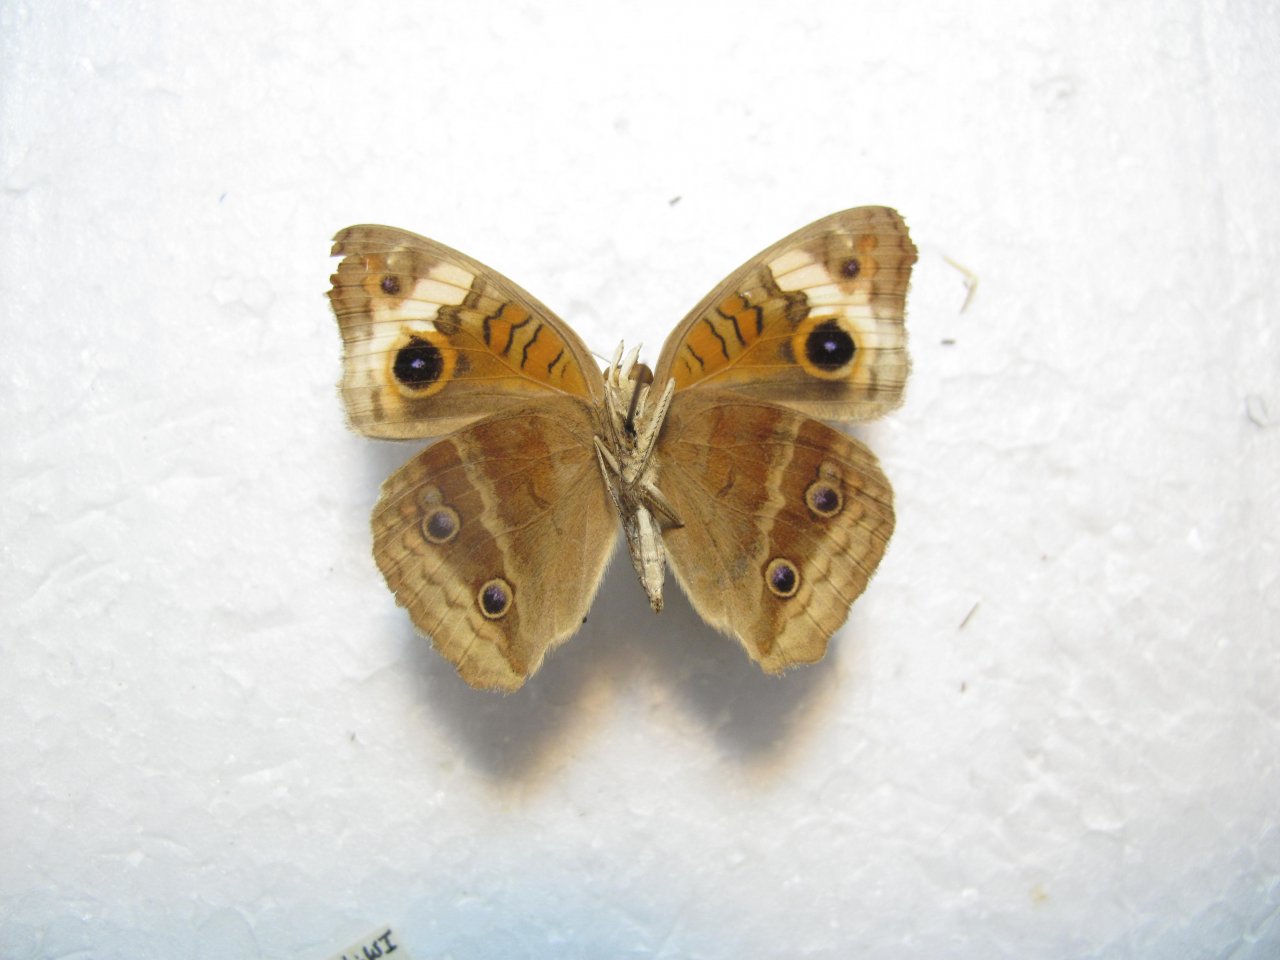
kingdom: Animalia
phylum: Arthropoda
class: Insecta
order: Lepidoptera
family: Nymphalidae
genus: Junonia
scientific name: Junonia
